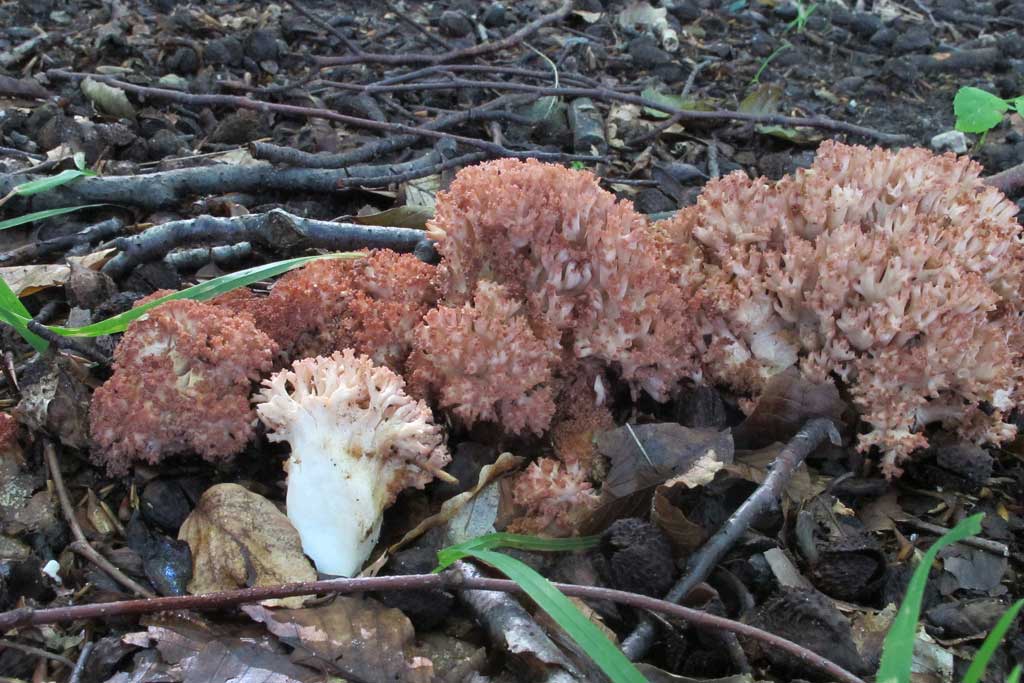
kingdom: Fungi
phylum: Basidiomycota
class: Agaricomycetes
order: Gomphales
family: Gomphaceae
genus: Ramaria
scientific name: Ramaria botrytis
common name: drue-koralsvamp
